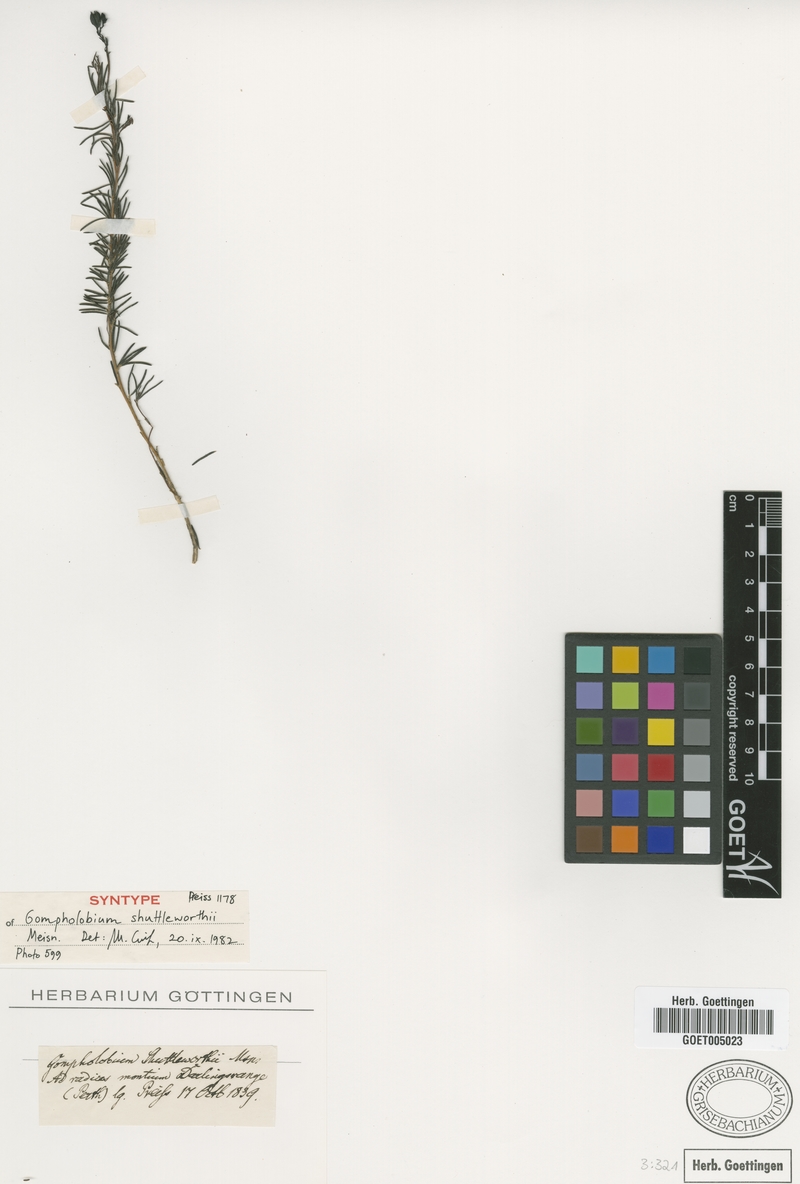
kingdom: Plantae
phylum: Tracheophyta
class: Magnoliopsida
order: Fabales
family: Fabaceae
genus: Gompholobium
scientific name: Gompholobium shuttleworthii
